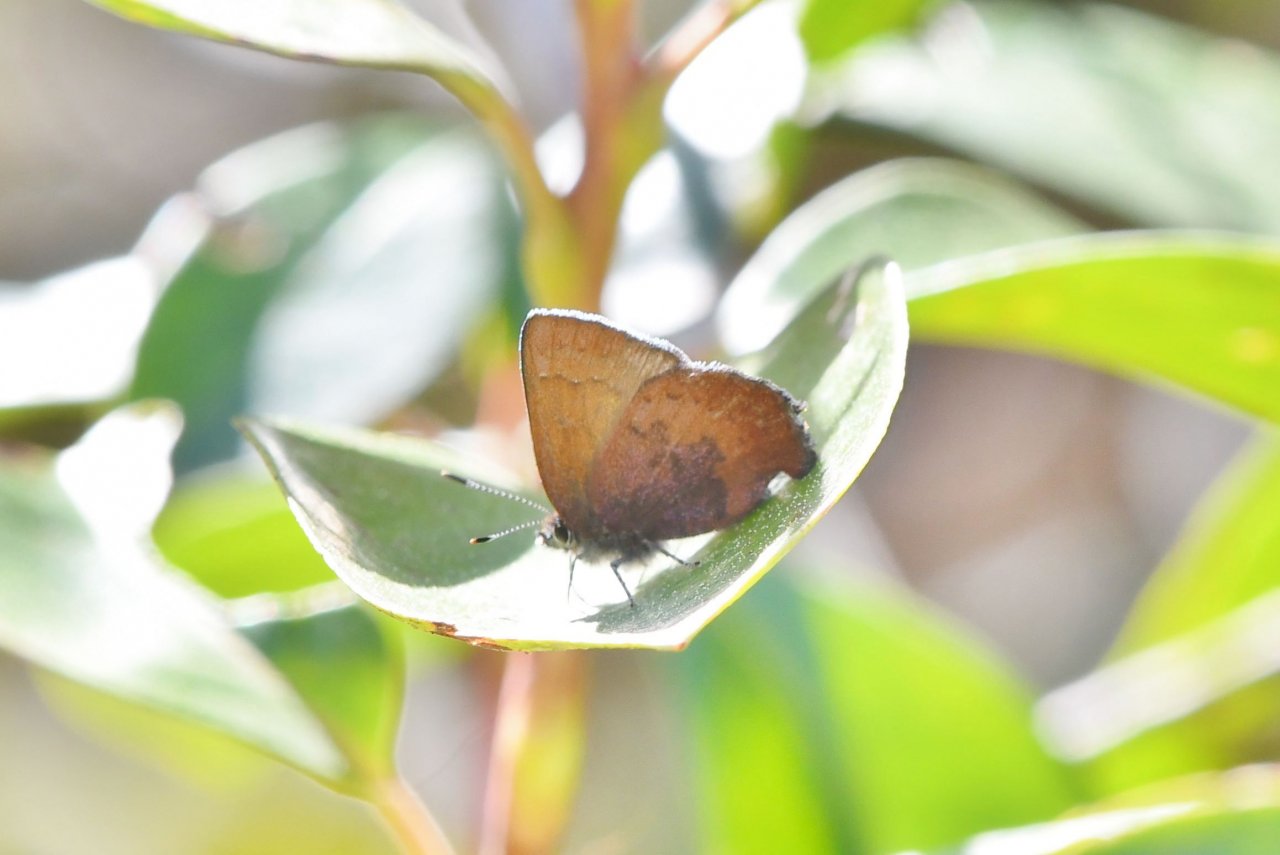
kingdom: Animalia
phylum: Arthropoda
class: Insecta
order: Lepidoptera
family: Lycaenidae
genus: Incisalia
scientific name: Incisalia irioides
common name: Brown Elfin
